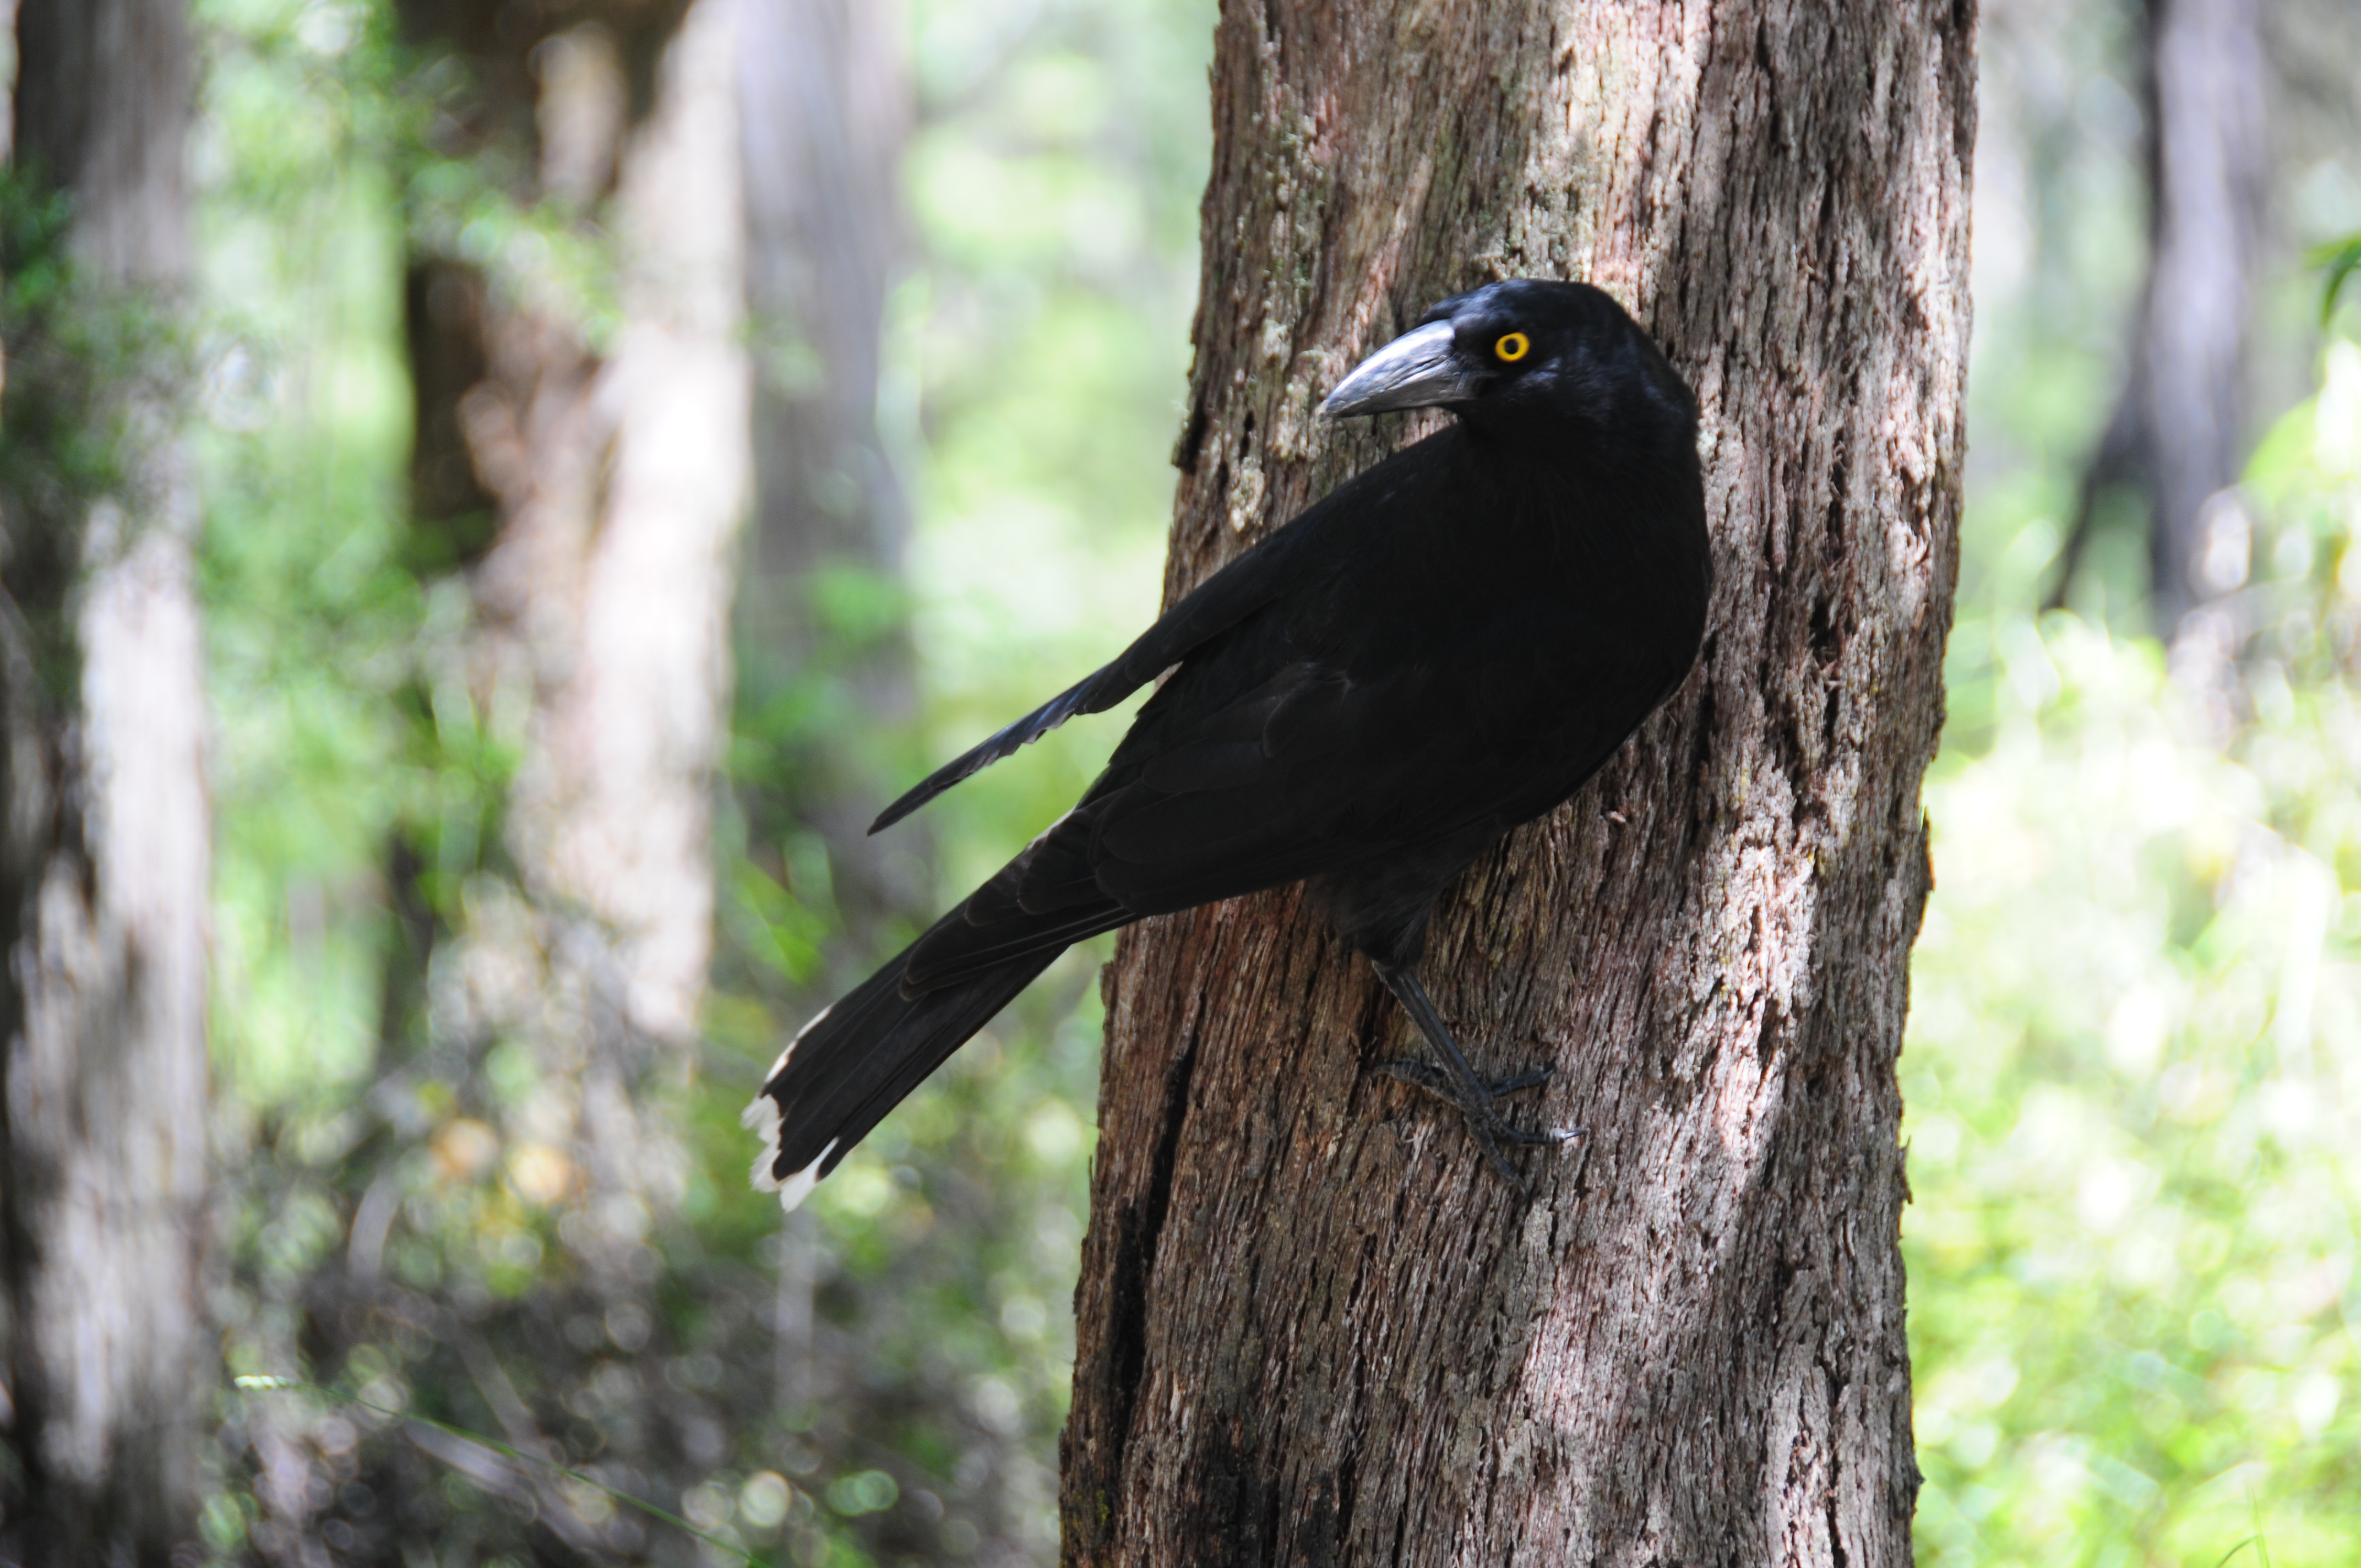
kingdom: Animalia
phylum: Chordata
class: Aves
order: Passeriformes
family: Cracticidae
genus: Strepera
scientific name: Strepera graculina
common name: Pied currawong
